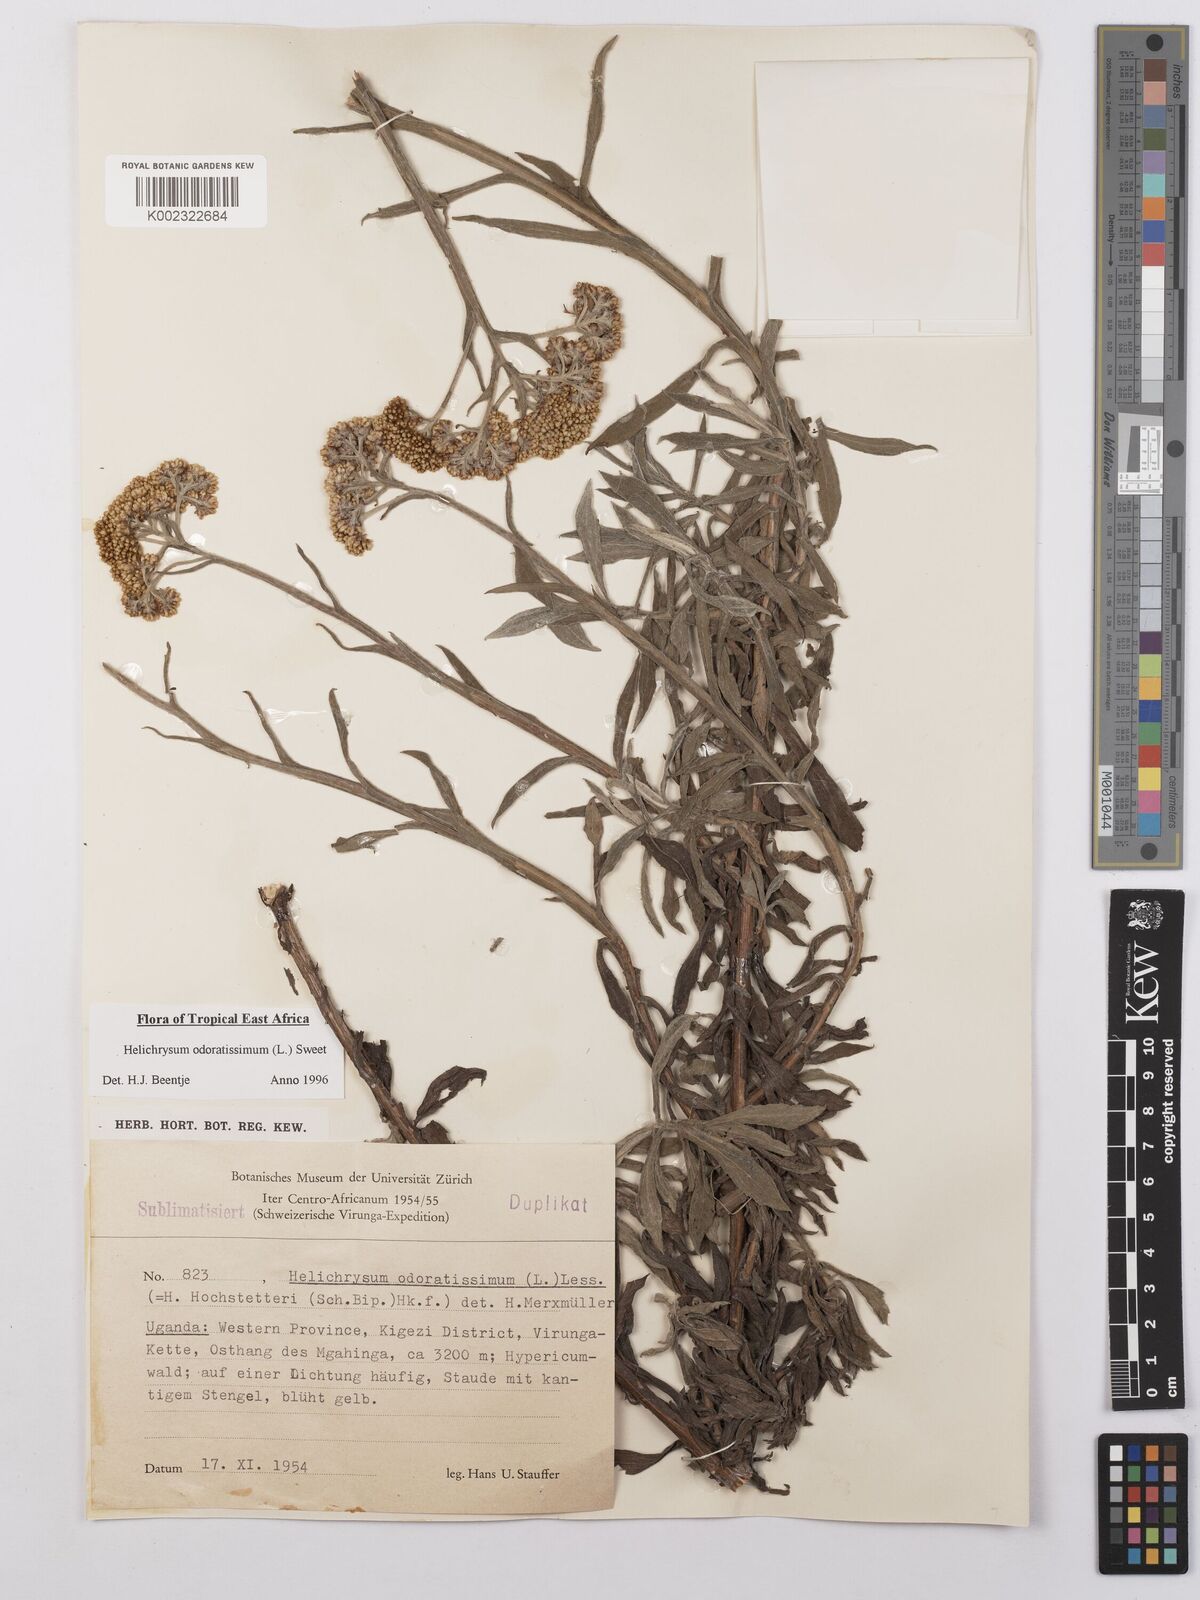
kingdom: Plantae
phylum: Tracheophyta
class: Magnoliopsida
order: Asterales
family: Asteraceae
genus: Helichrysum
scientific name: Helichrysum odoratissimum
